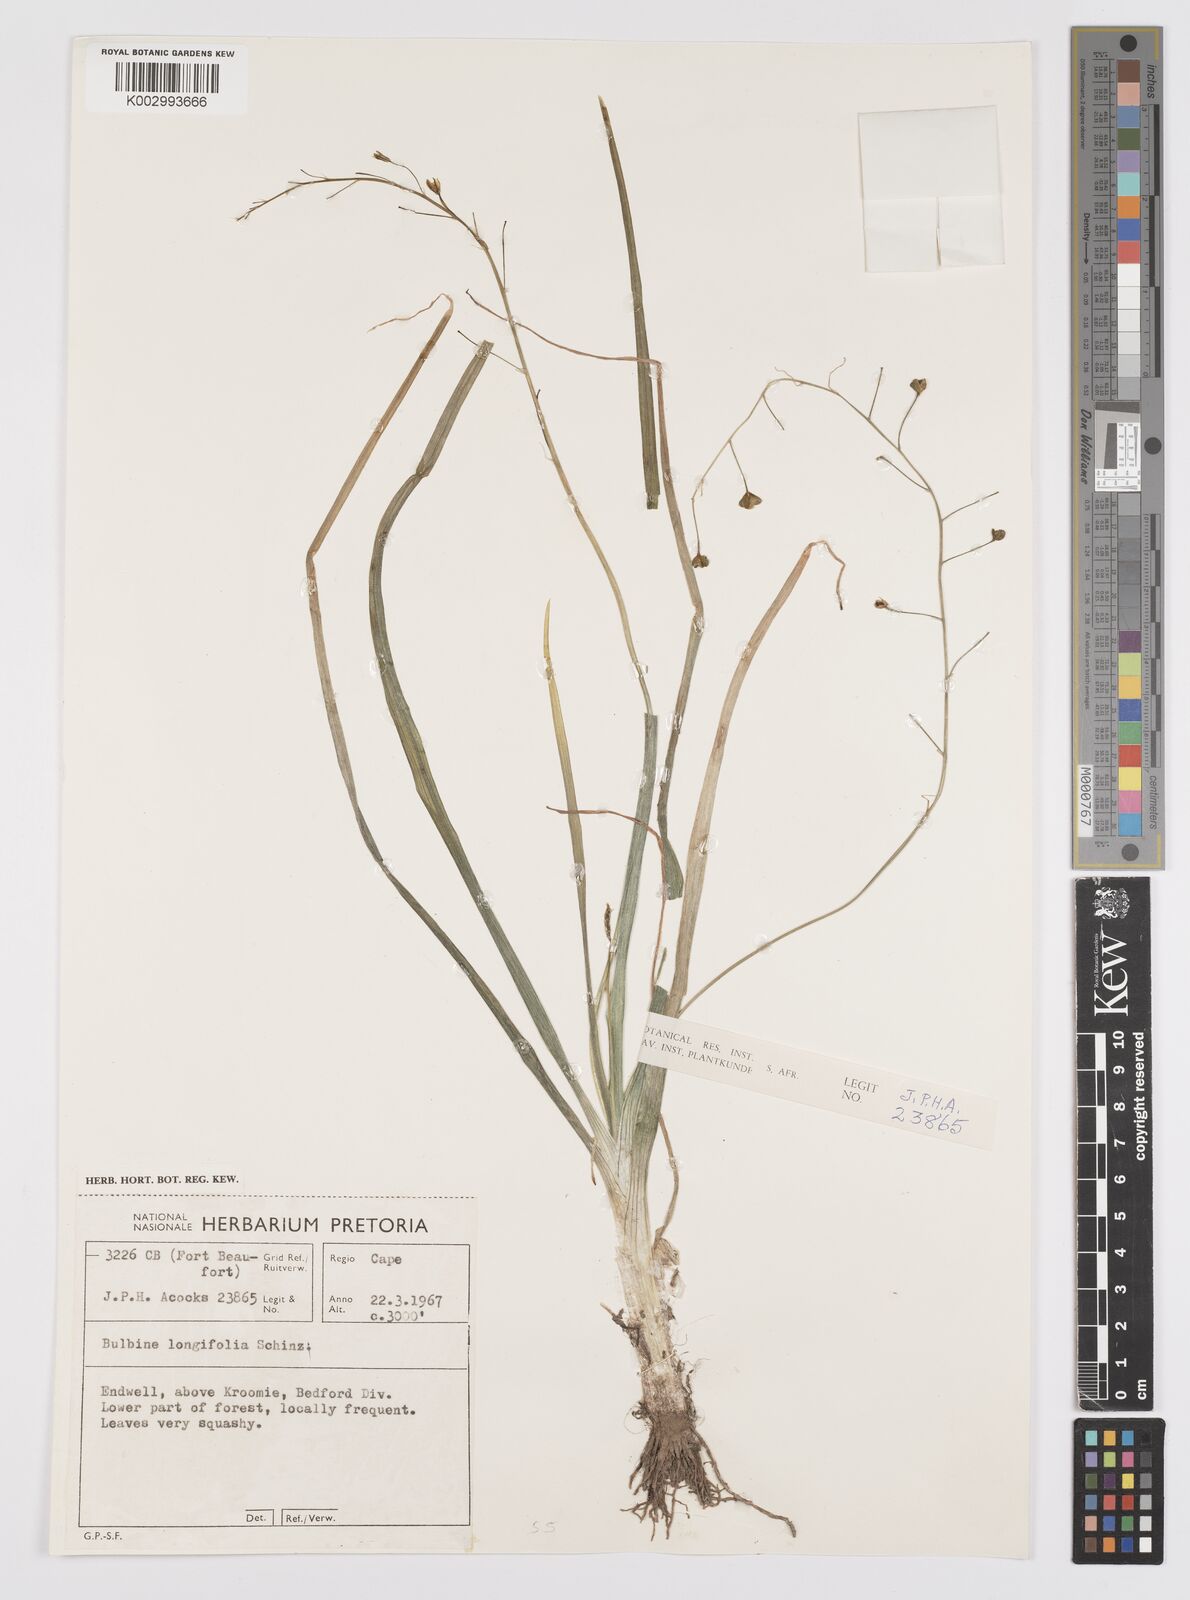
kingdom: Plantae
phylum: Tracheophyta
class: Liliopsida
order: Asparagales
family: Asphodelaceae
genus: Bulbine
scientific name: Bulbine longifolia
